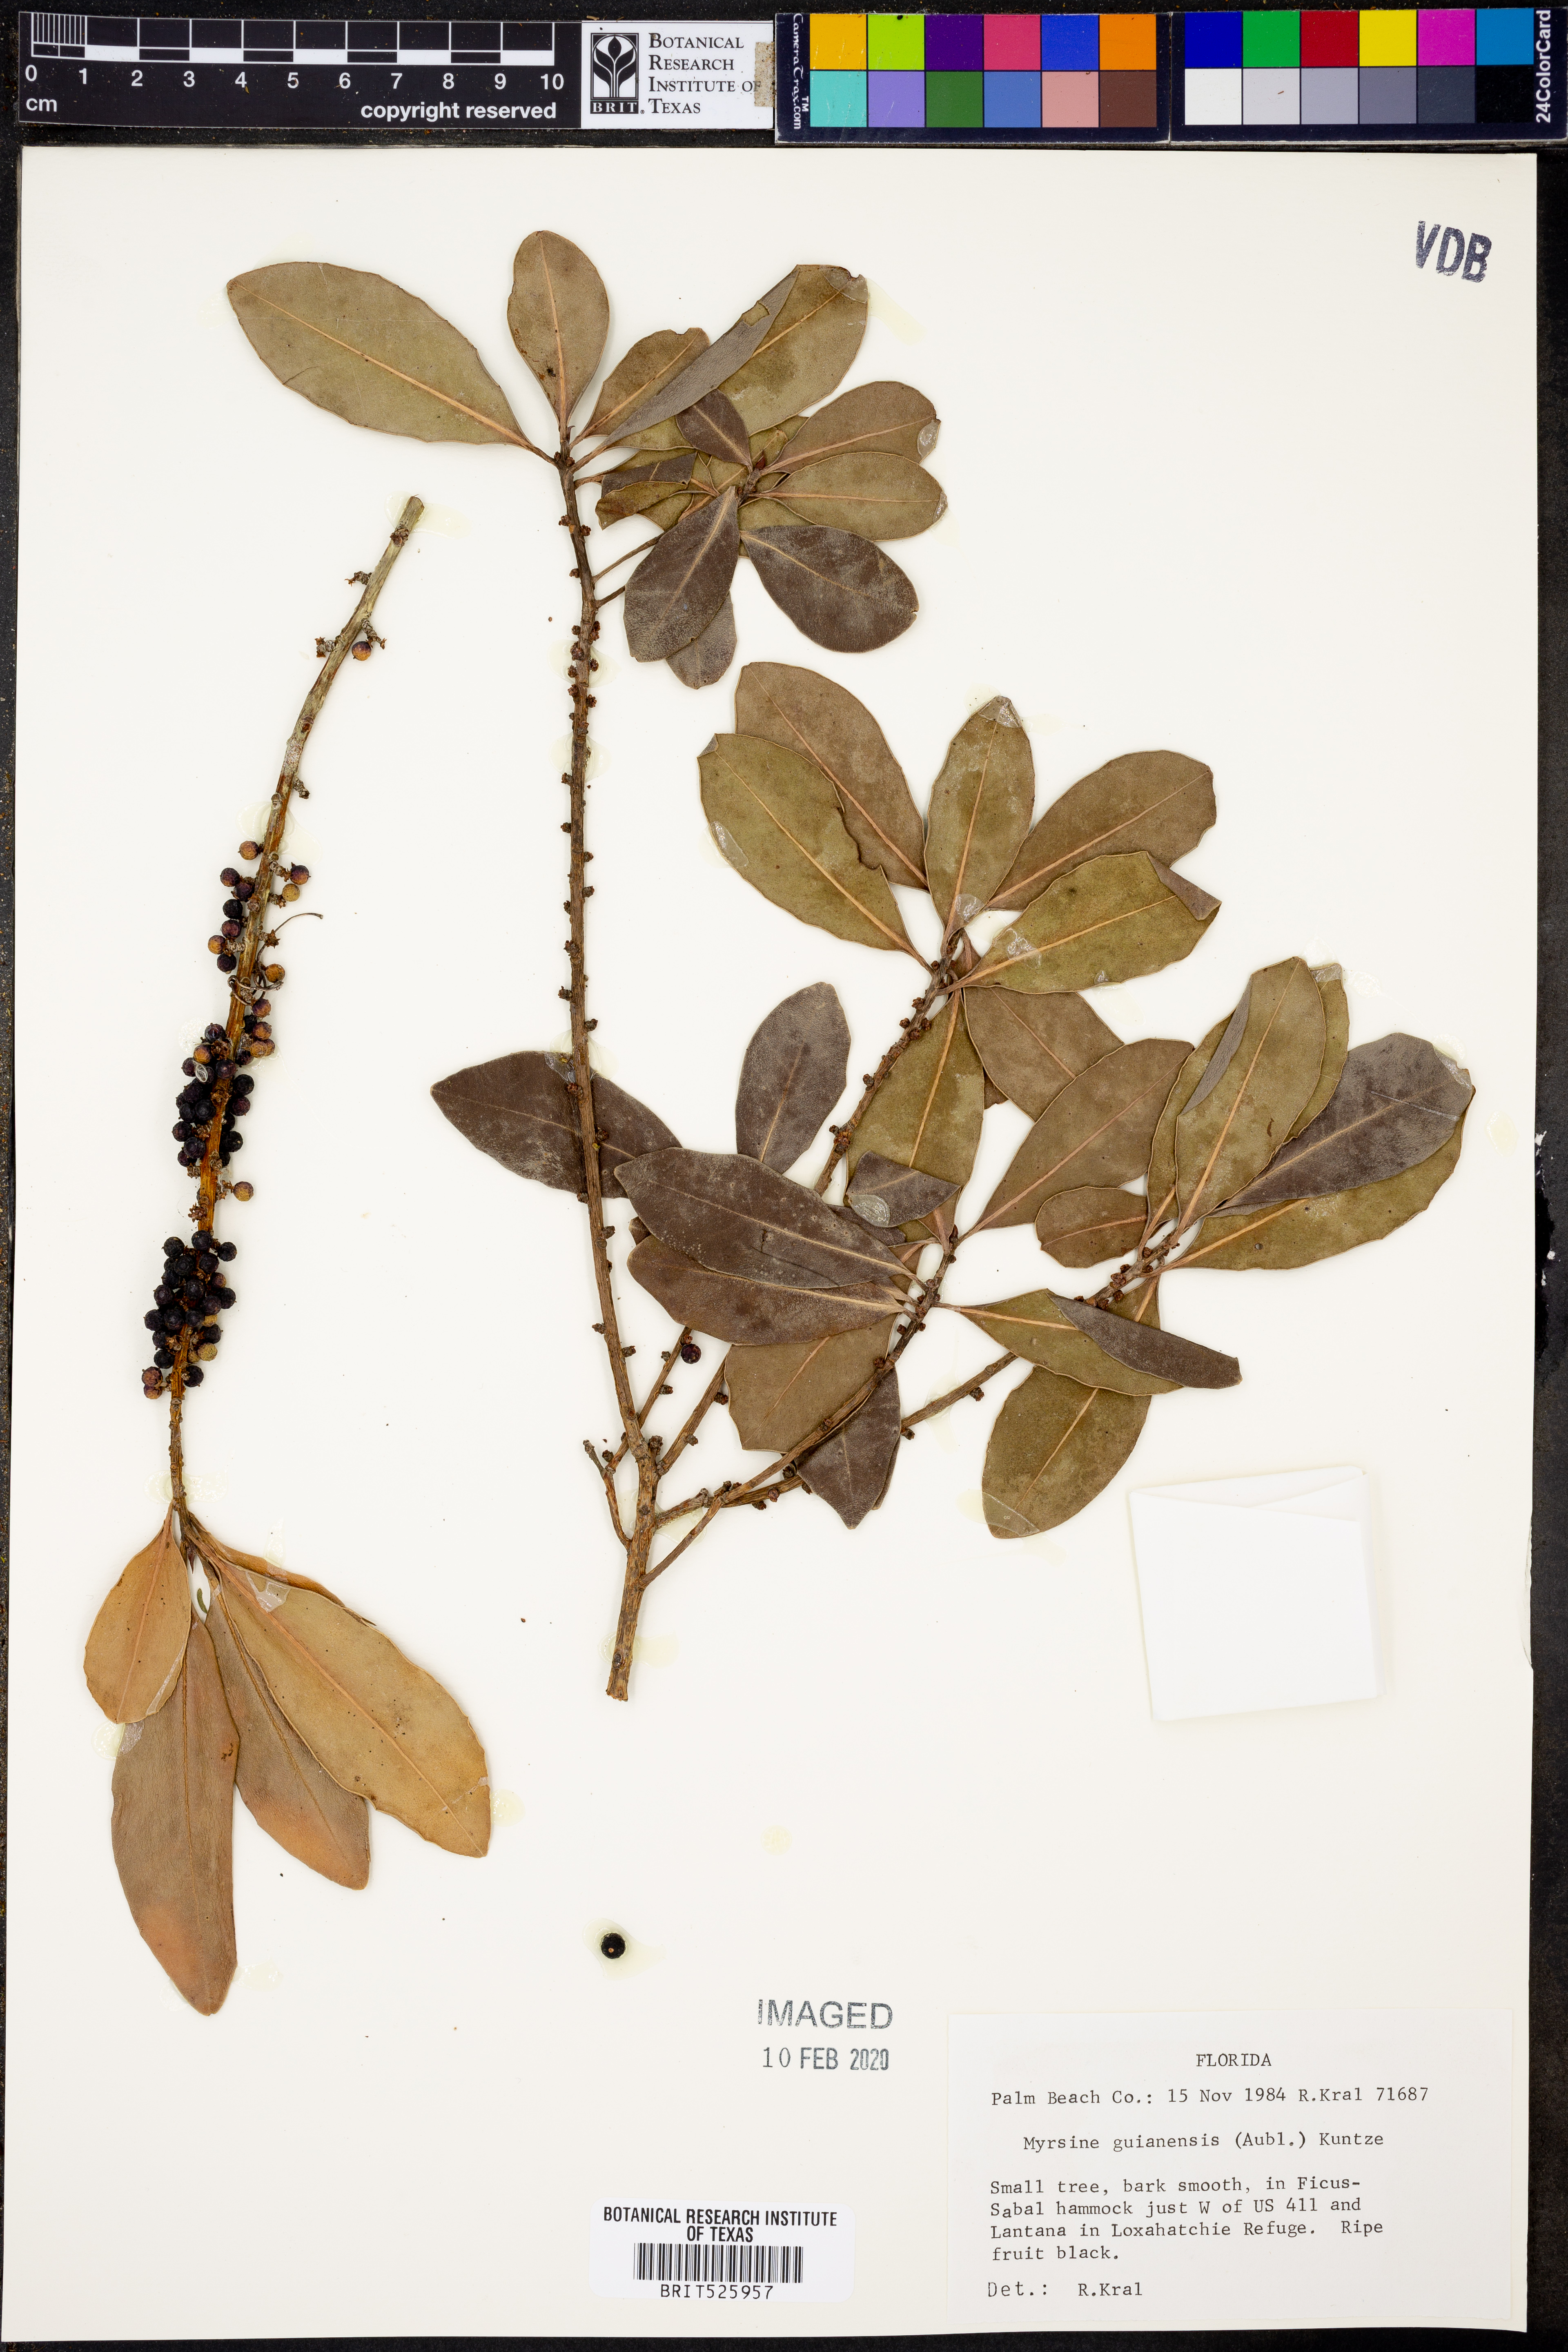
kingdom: Plantae
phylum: Tracheophyta
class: Magnoliopsida
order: Ericales
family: Primulaceae
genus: Myrsine
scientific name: Myrsine guianensis
